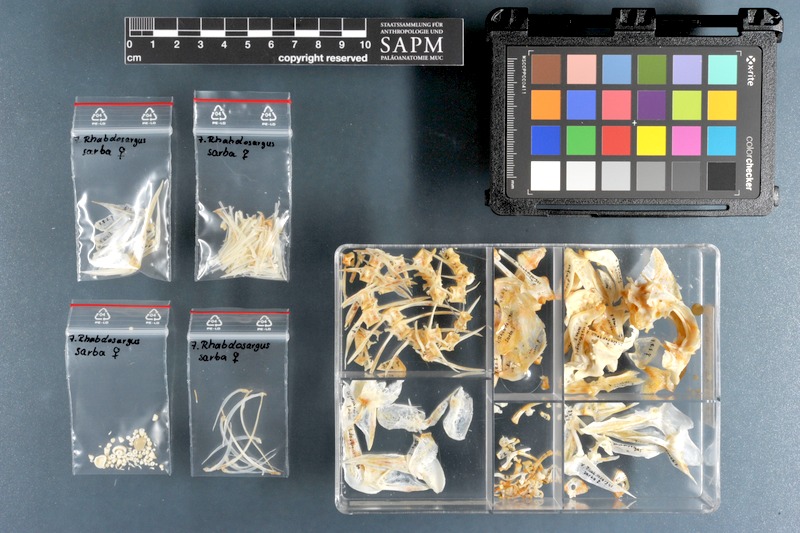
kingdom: Animalia
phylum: Chordata
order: Perciformes
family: Sparidae
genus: Rhabdosargus
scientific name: Rhabdosargus sarba
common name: Goldlined seabream
